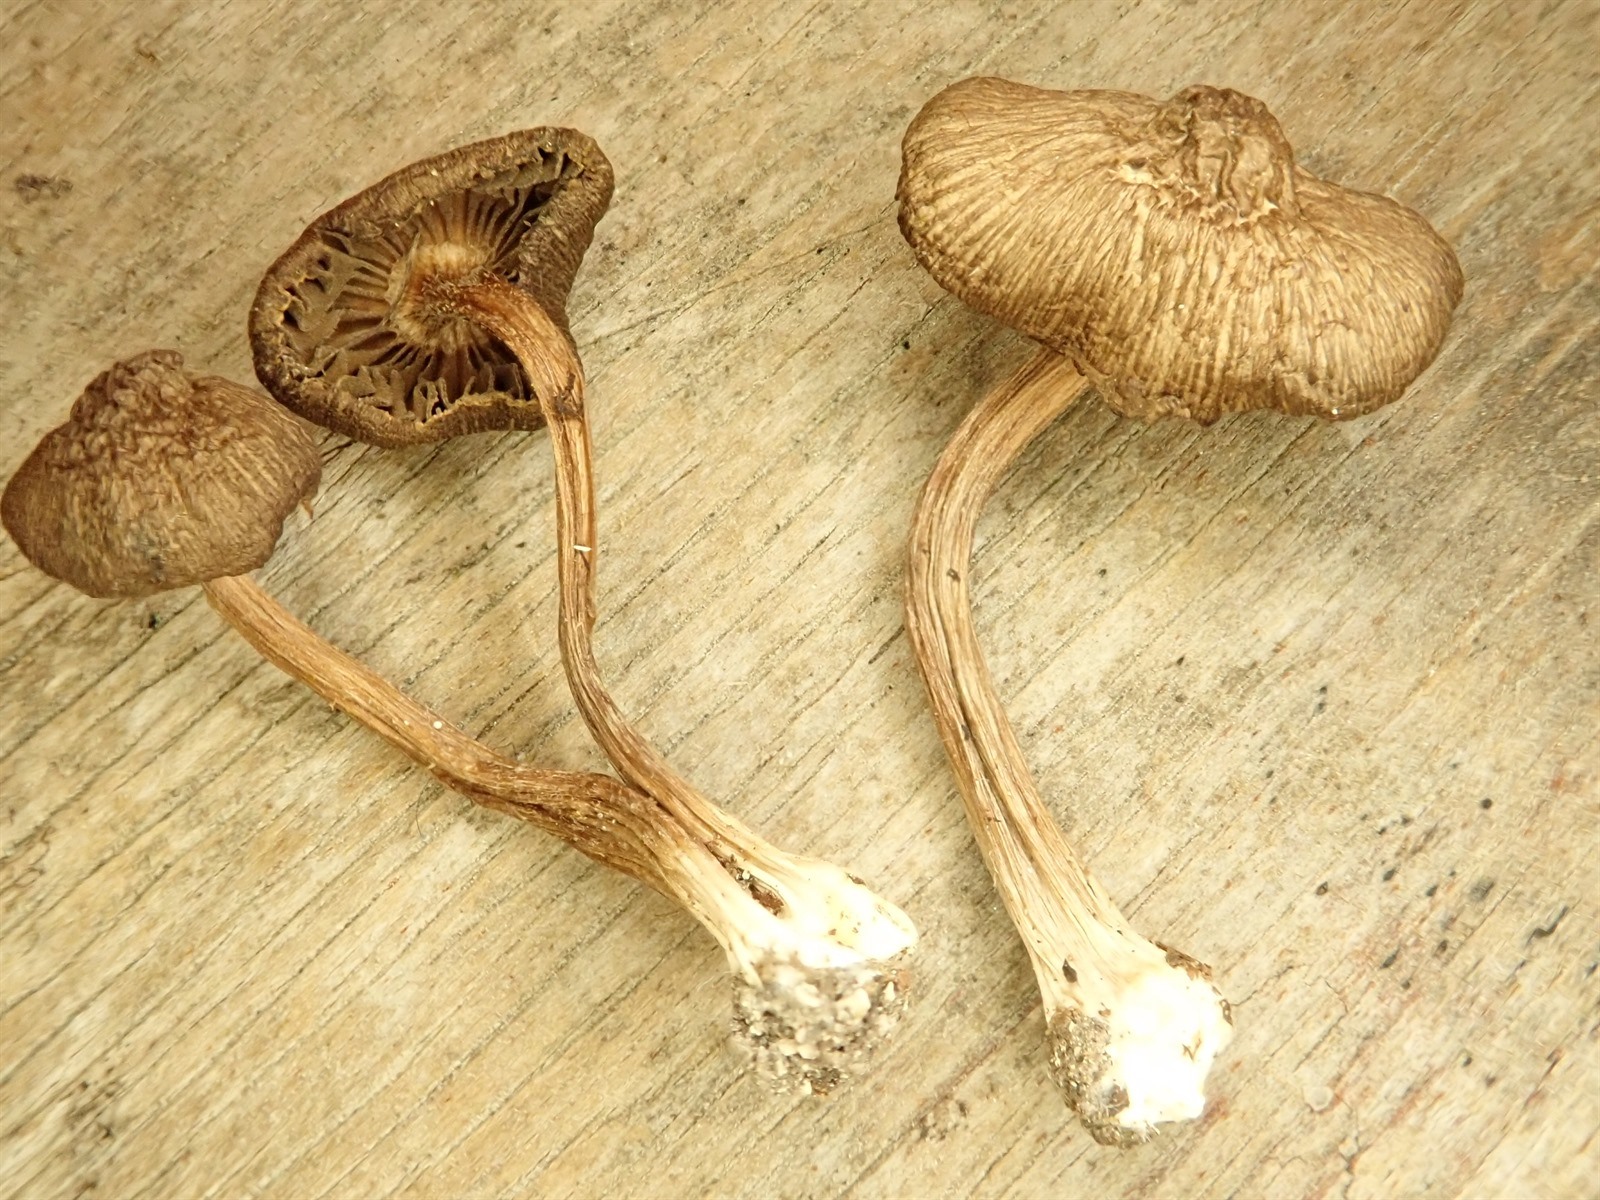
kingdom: Fungi
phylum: Basidiomycota
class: Agaricomycetes
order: Agaricales
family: Inocybaceae
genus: Inocybe
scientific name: Inocybe scolopacis
